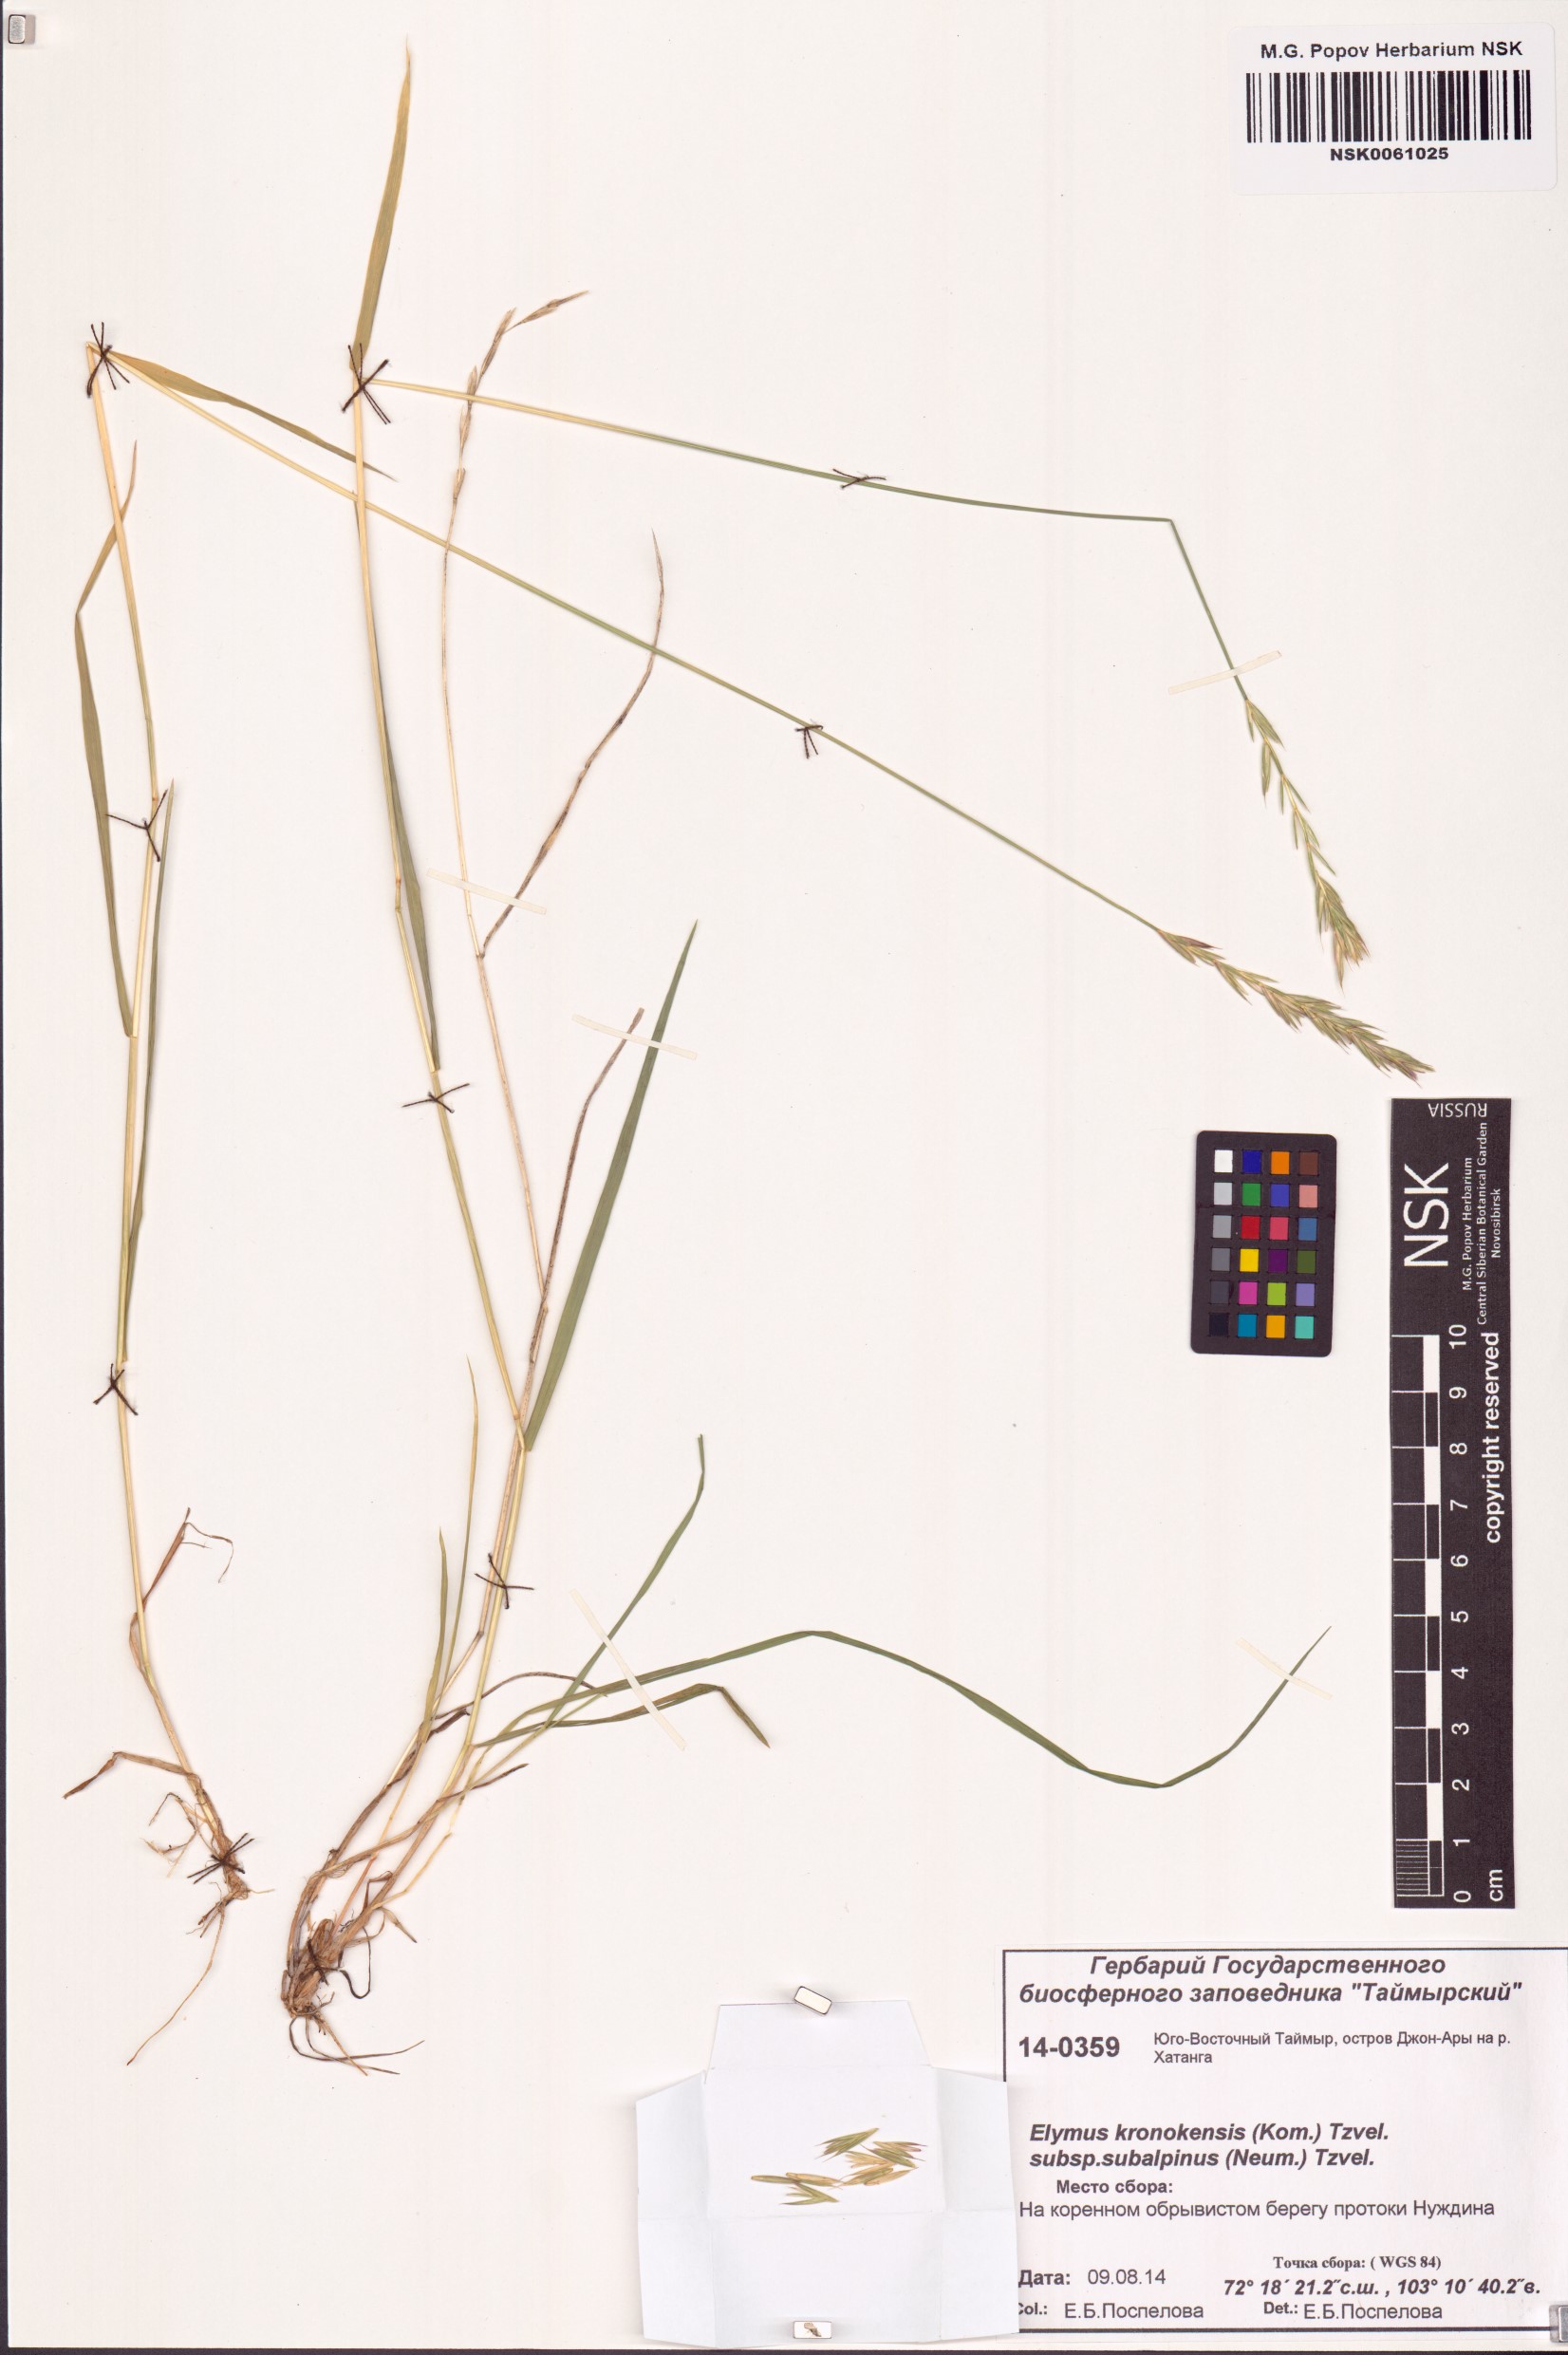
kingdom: Plantae
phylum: Tracheophyta
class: Liliopsida
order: Poales
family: Poaceae
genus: Elymus
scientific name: Elymus macrourus
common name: Northern wheatgrass
